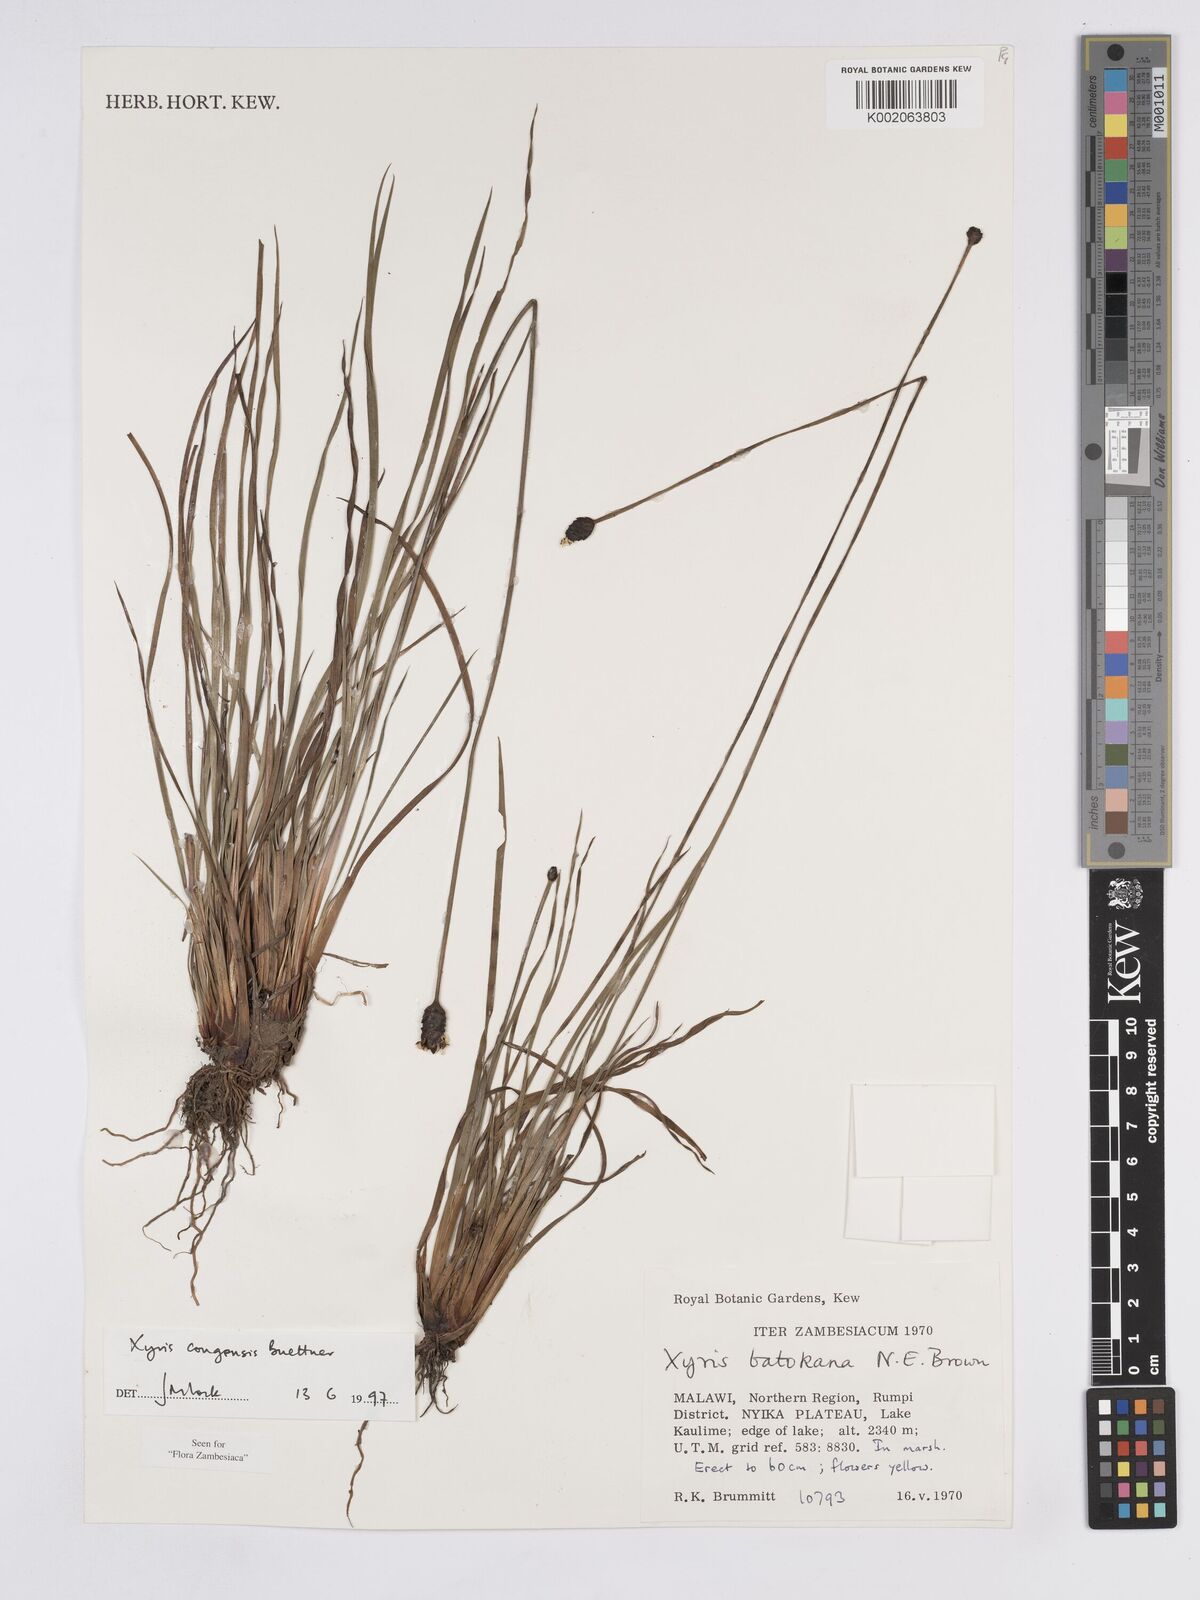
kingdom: Plantae
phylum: Tracheophyta
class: Liliopsida
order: Poales
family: Xyridaceae
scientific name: Xyridaceae
